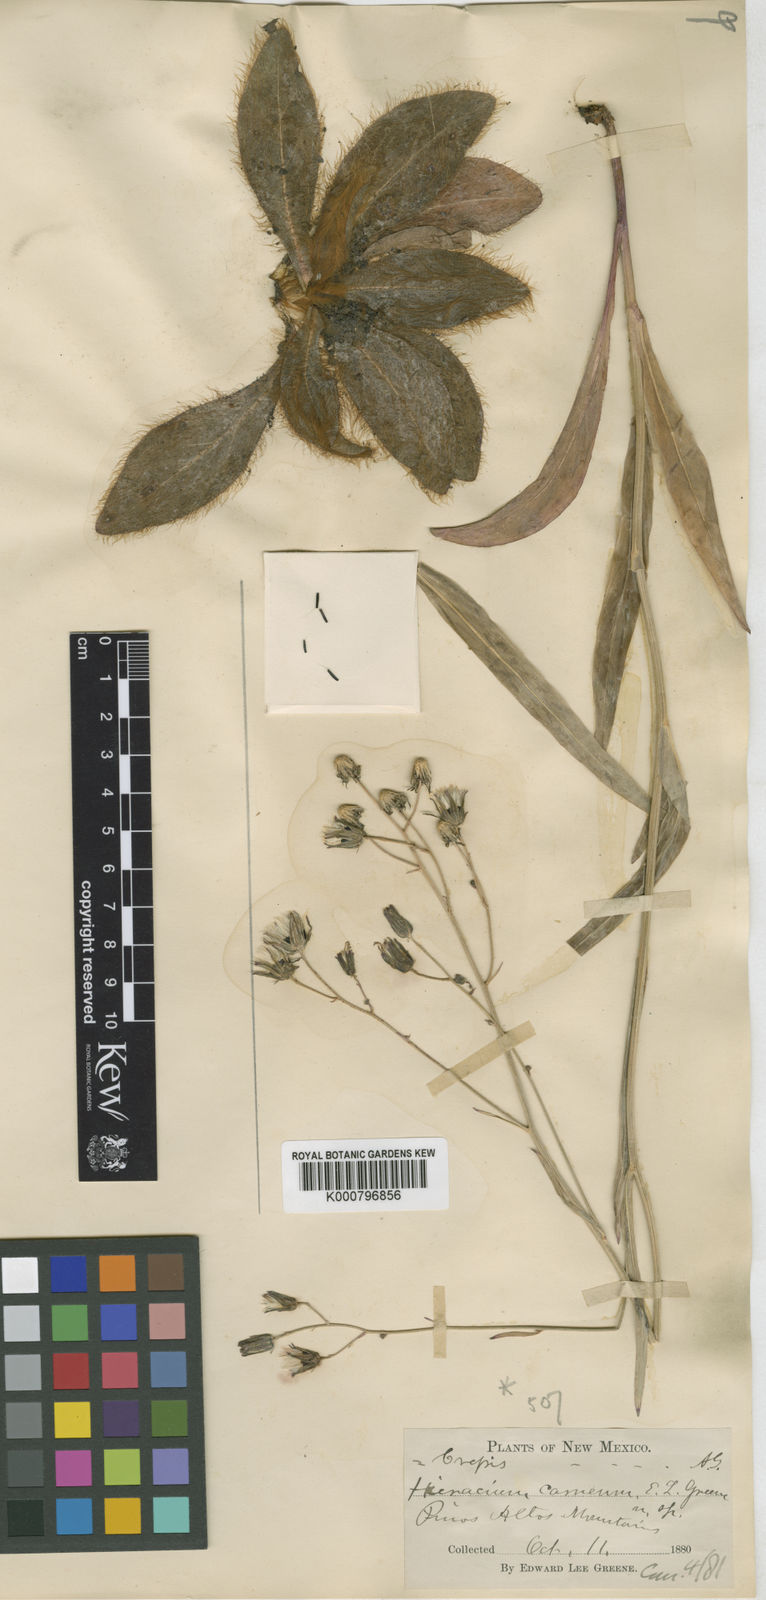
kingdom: Plantae
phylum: Tracheophyta
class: Magnoliopsida
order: Asterales
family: Asteraceae
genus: Hieracium
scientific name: Hieracium carneum
